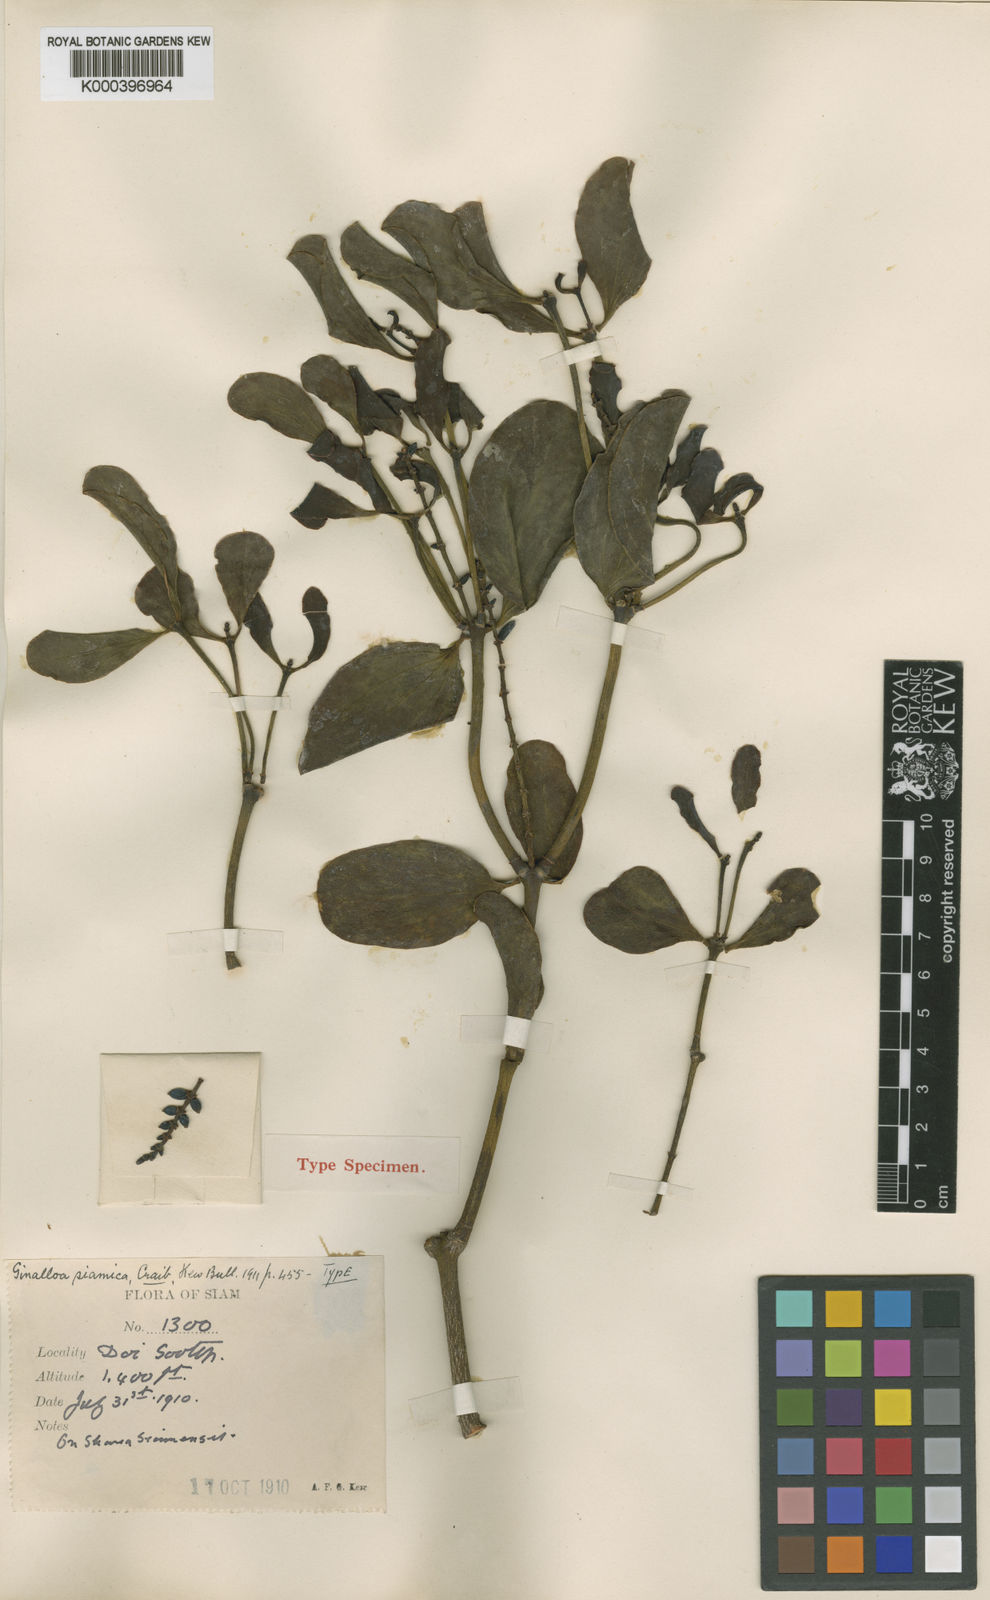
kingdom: Plantae
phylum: Tracheophyta
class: Magnoliopsida
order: Santalales
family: Viscaceae
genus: Ginalloa
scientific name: Ginalloa siamica
